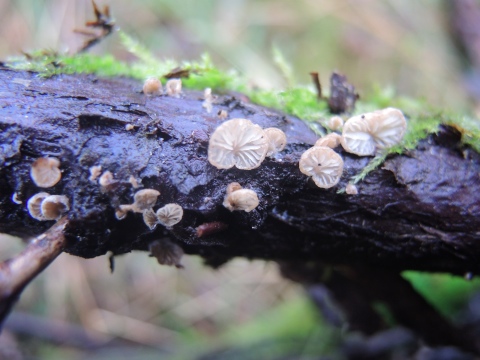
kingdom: Fungi
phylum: Basidiomycota
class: Agaricomycetes
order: Agaricales
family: Entolomataceae
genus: Clitopilus
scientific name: Clitopilus hobsonii
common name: Miller's oysterling
